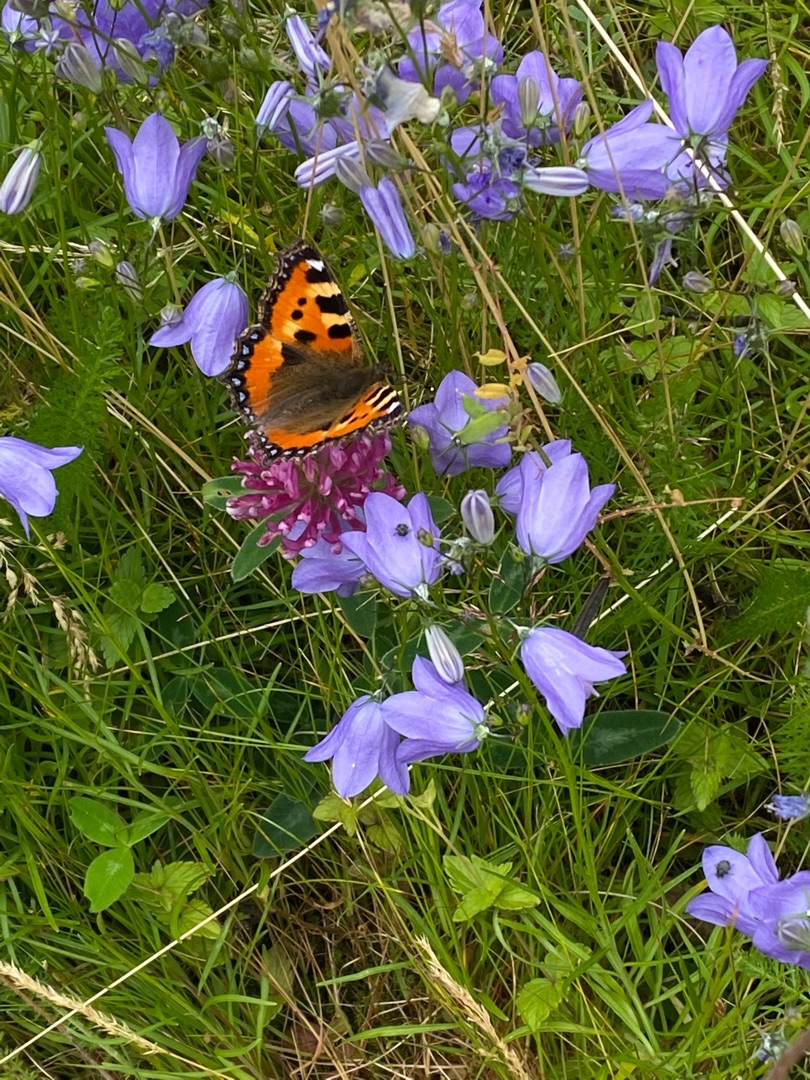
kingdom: Animalia
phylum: Arthropoda
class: Insecta
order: Lepidoptera
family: Nymphalidae
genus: Aglais
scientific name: Aglais urticae
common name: Nældens takvinge
